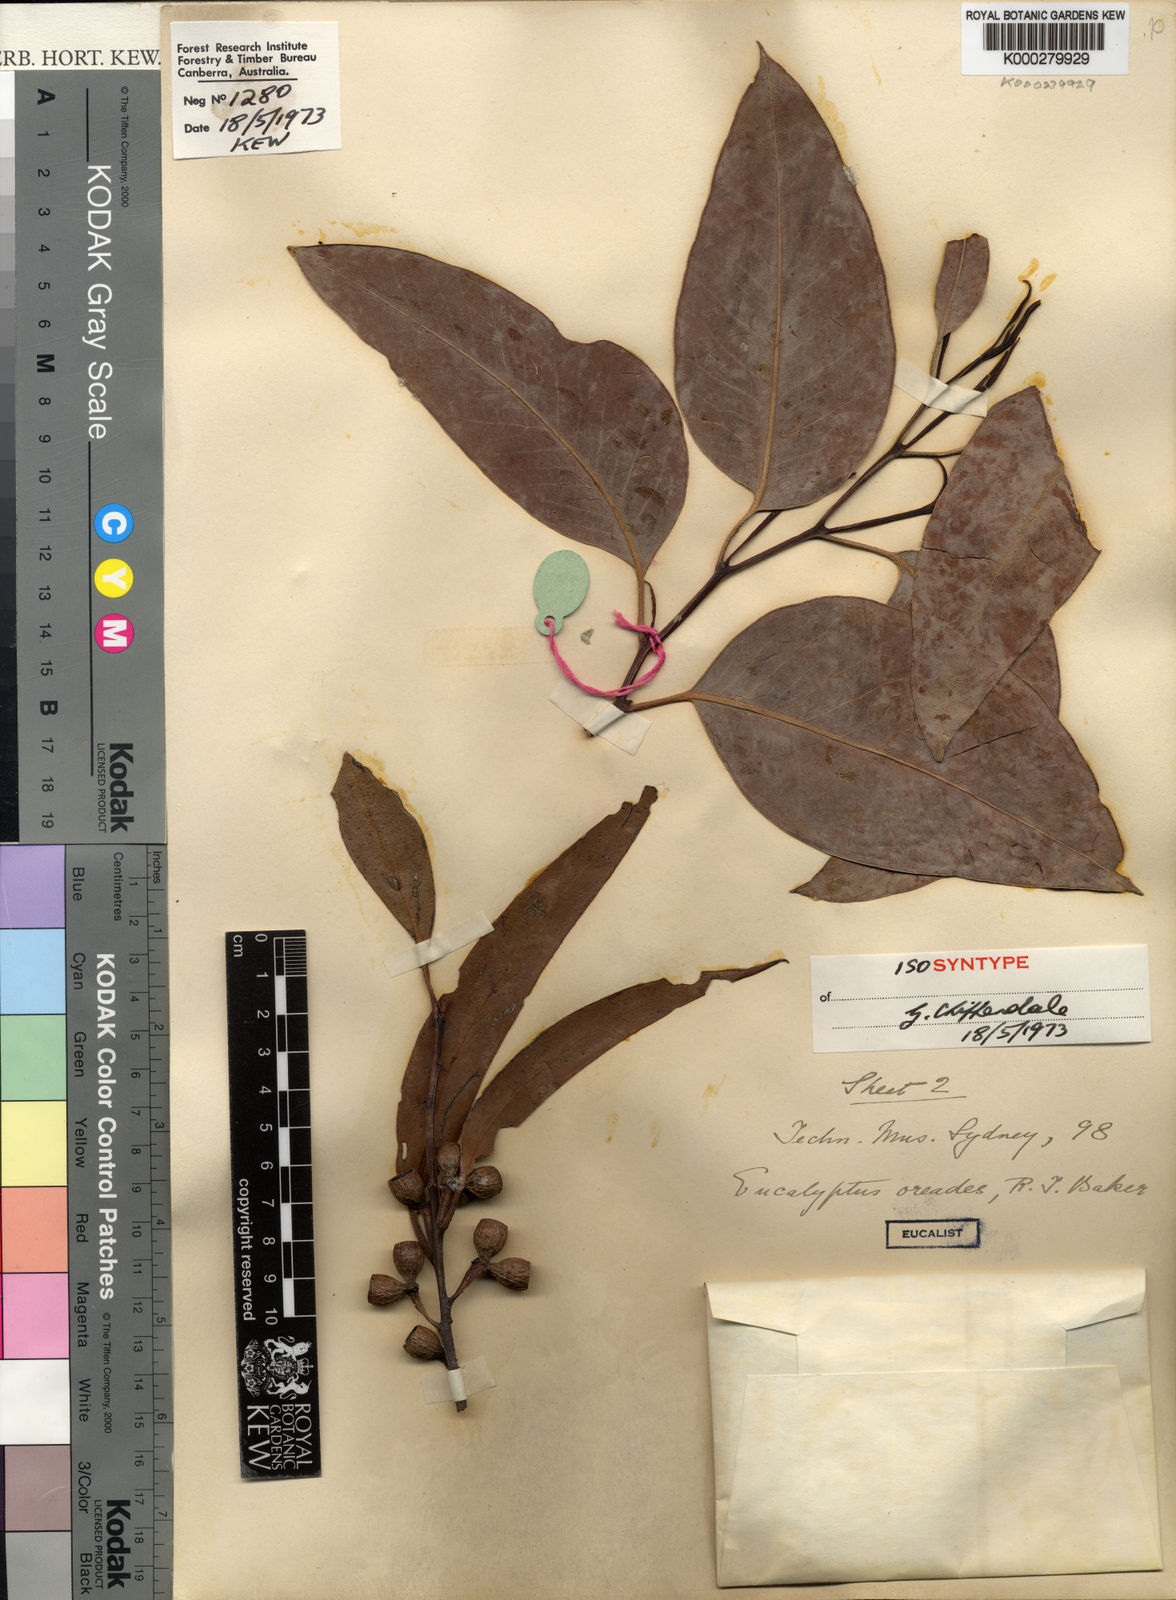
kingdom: Plantae
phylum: Tracheophyta
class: Magnoliopsida
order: Myrtales
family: Myrtaceae
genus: Eucalyptus
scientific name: Eucalyptus oreades
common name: White-ash
